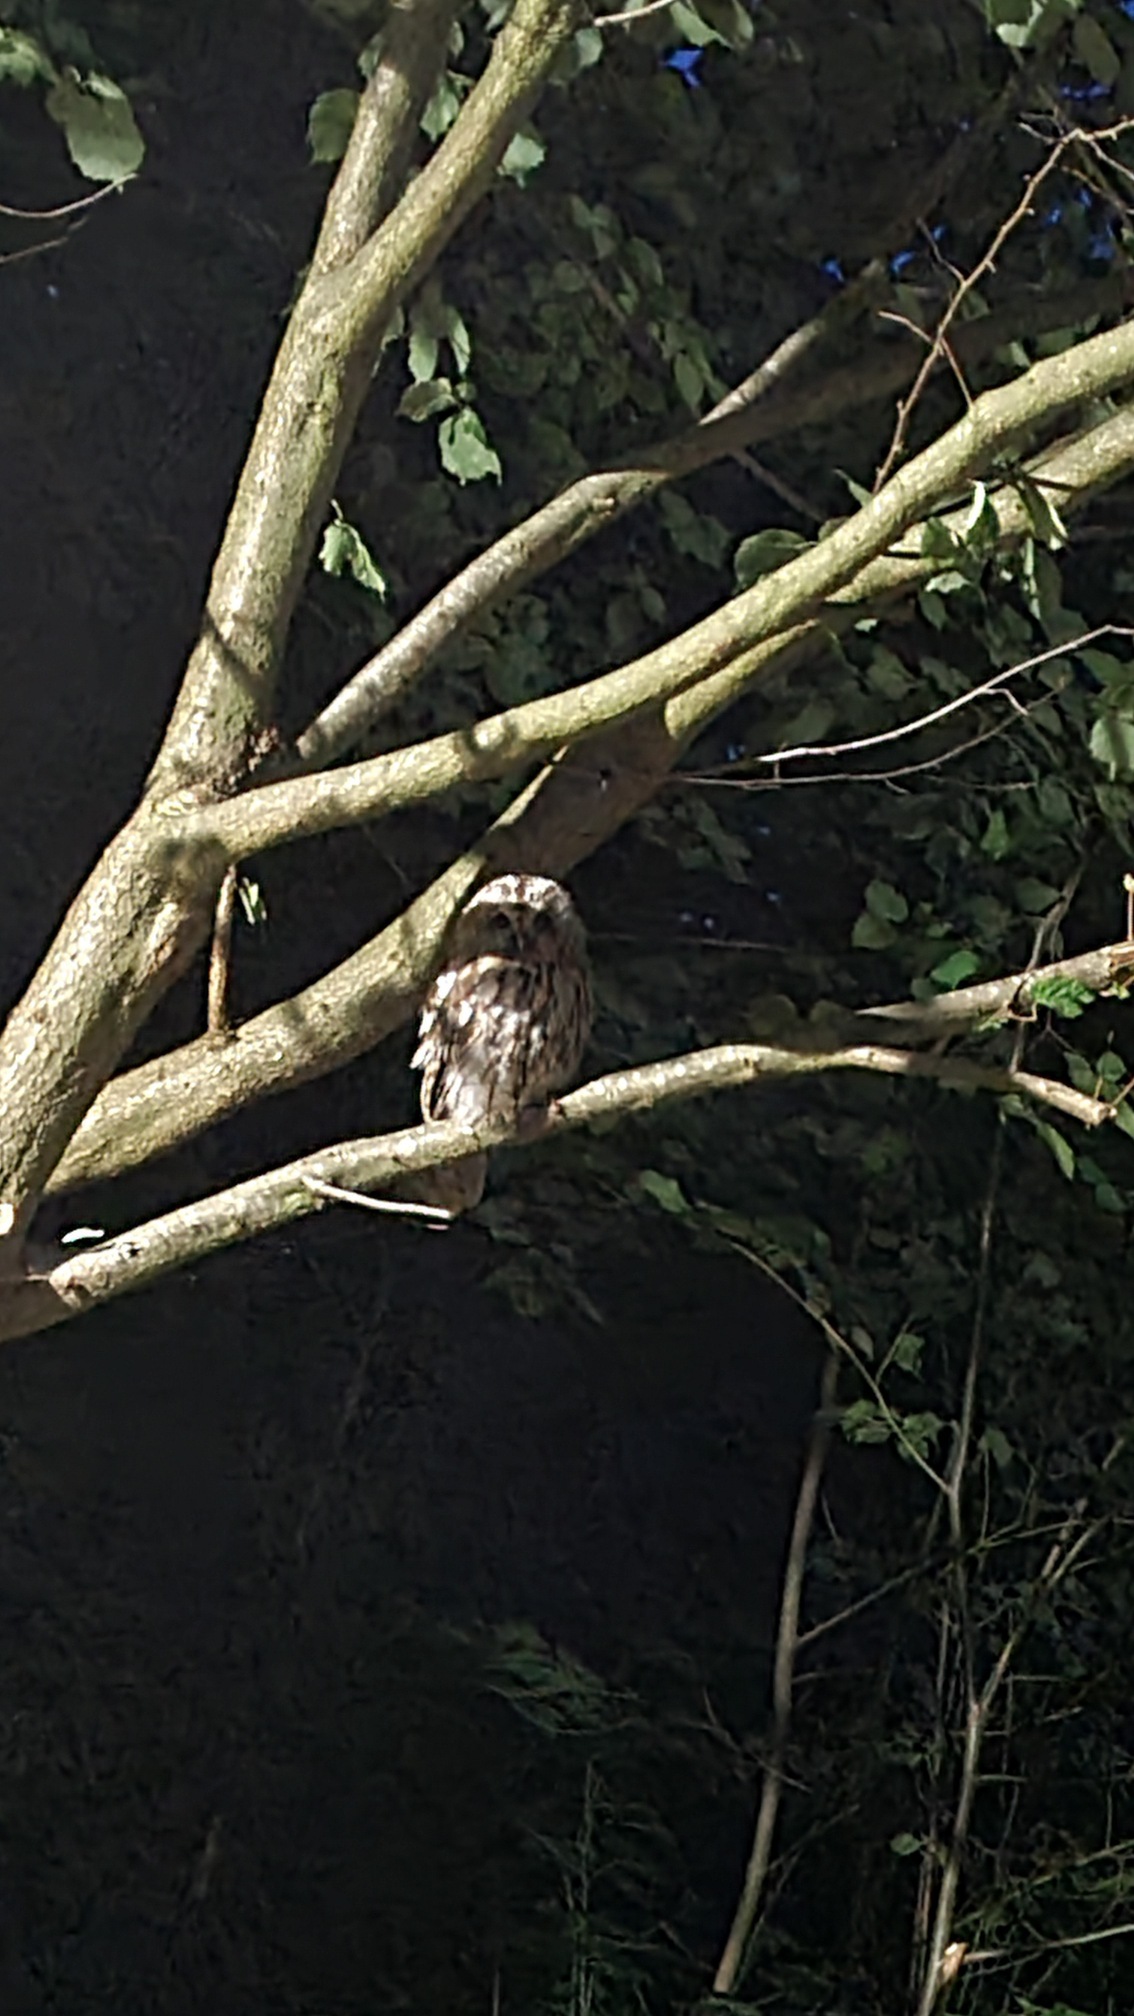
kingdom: Animalia
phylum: Chordata
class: Aves
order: Strigiformes
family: Strigidae
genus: Strix
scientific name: Strix aluco
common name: Natugle
